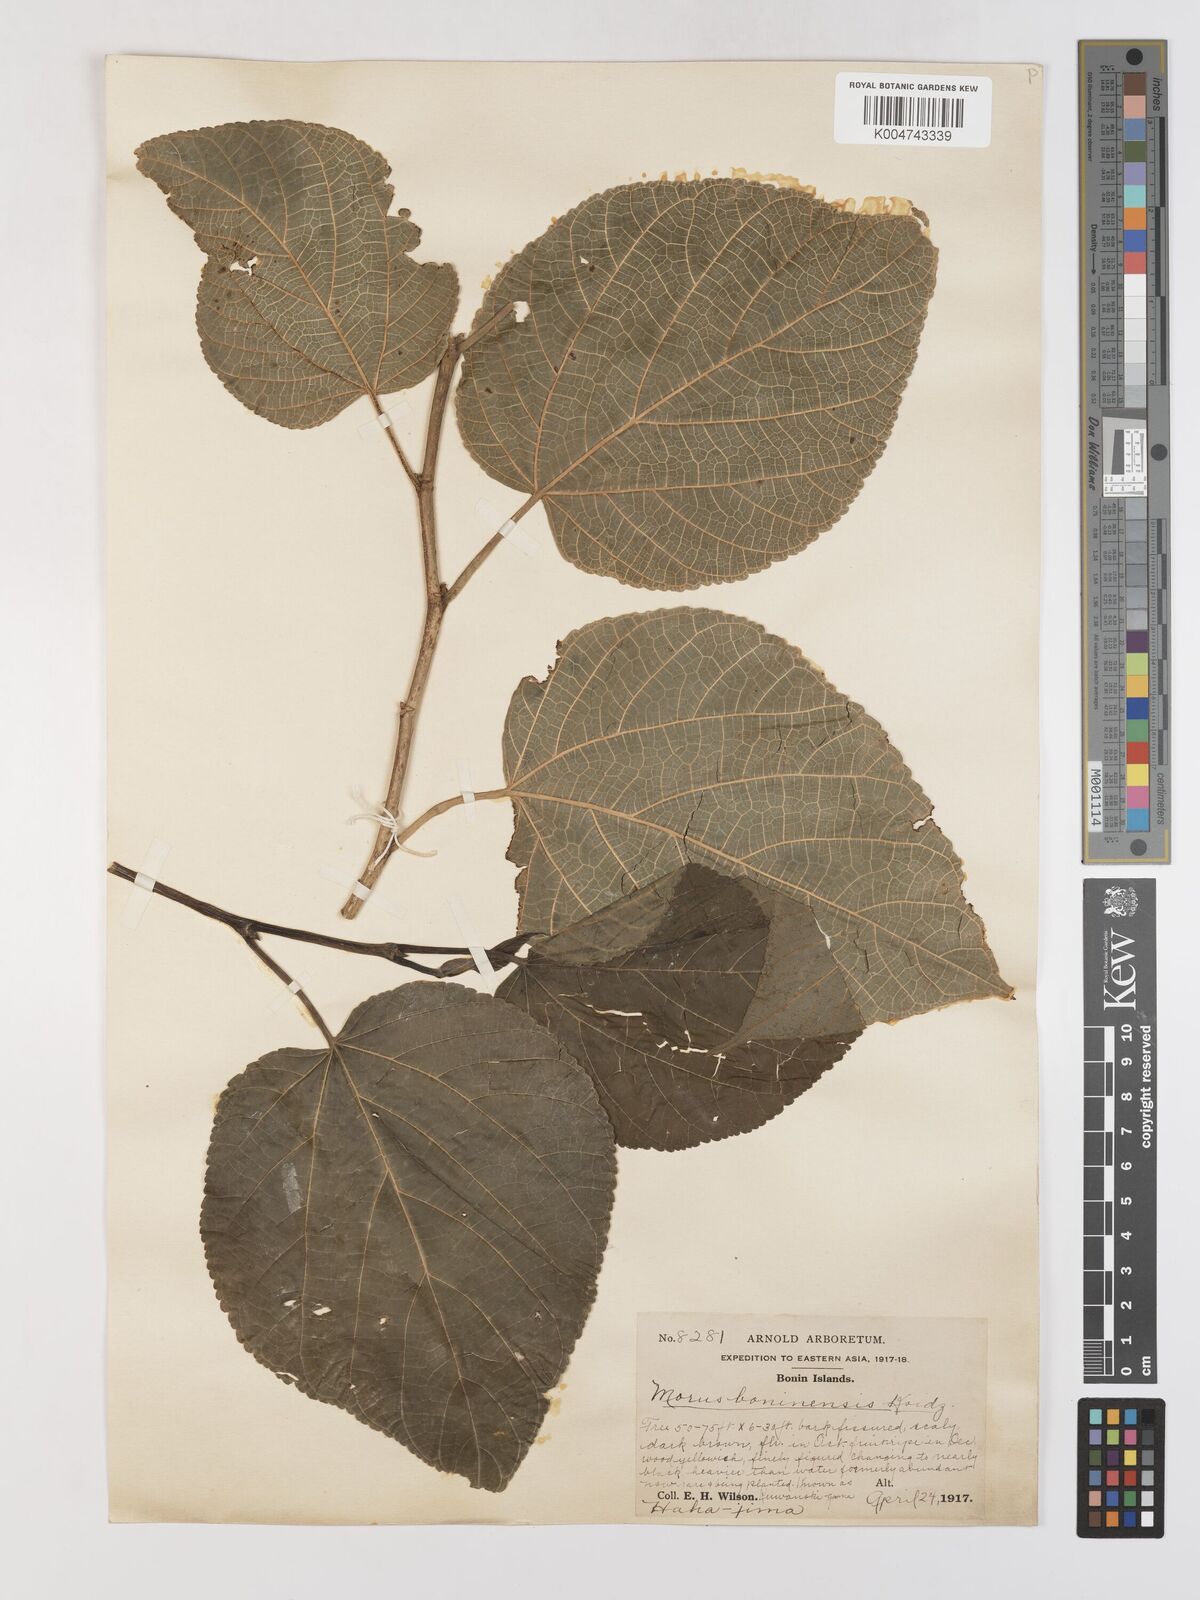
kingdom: Plantae
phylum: Tracheophyta
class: Magnoliopsida
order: Rosales
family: Moraceae
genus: Morus
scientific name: Morus boninensis
